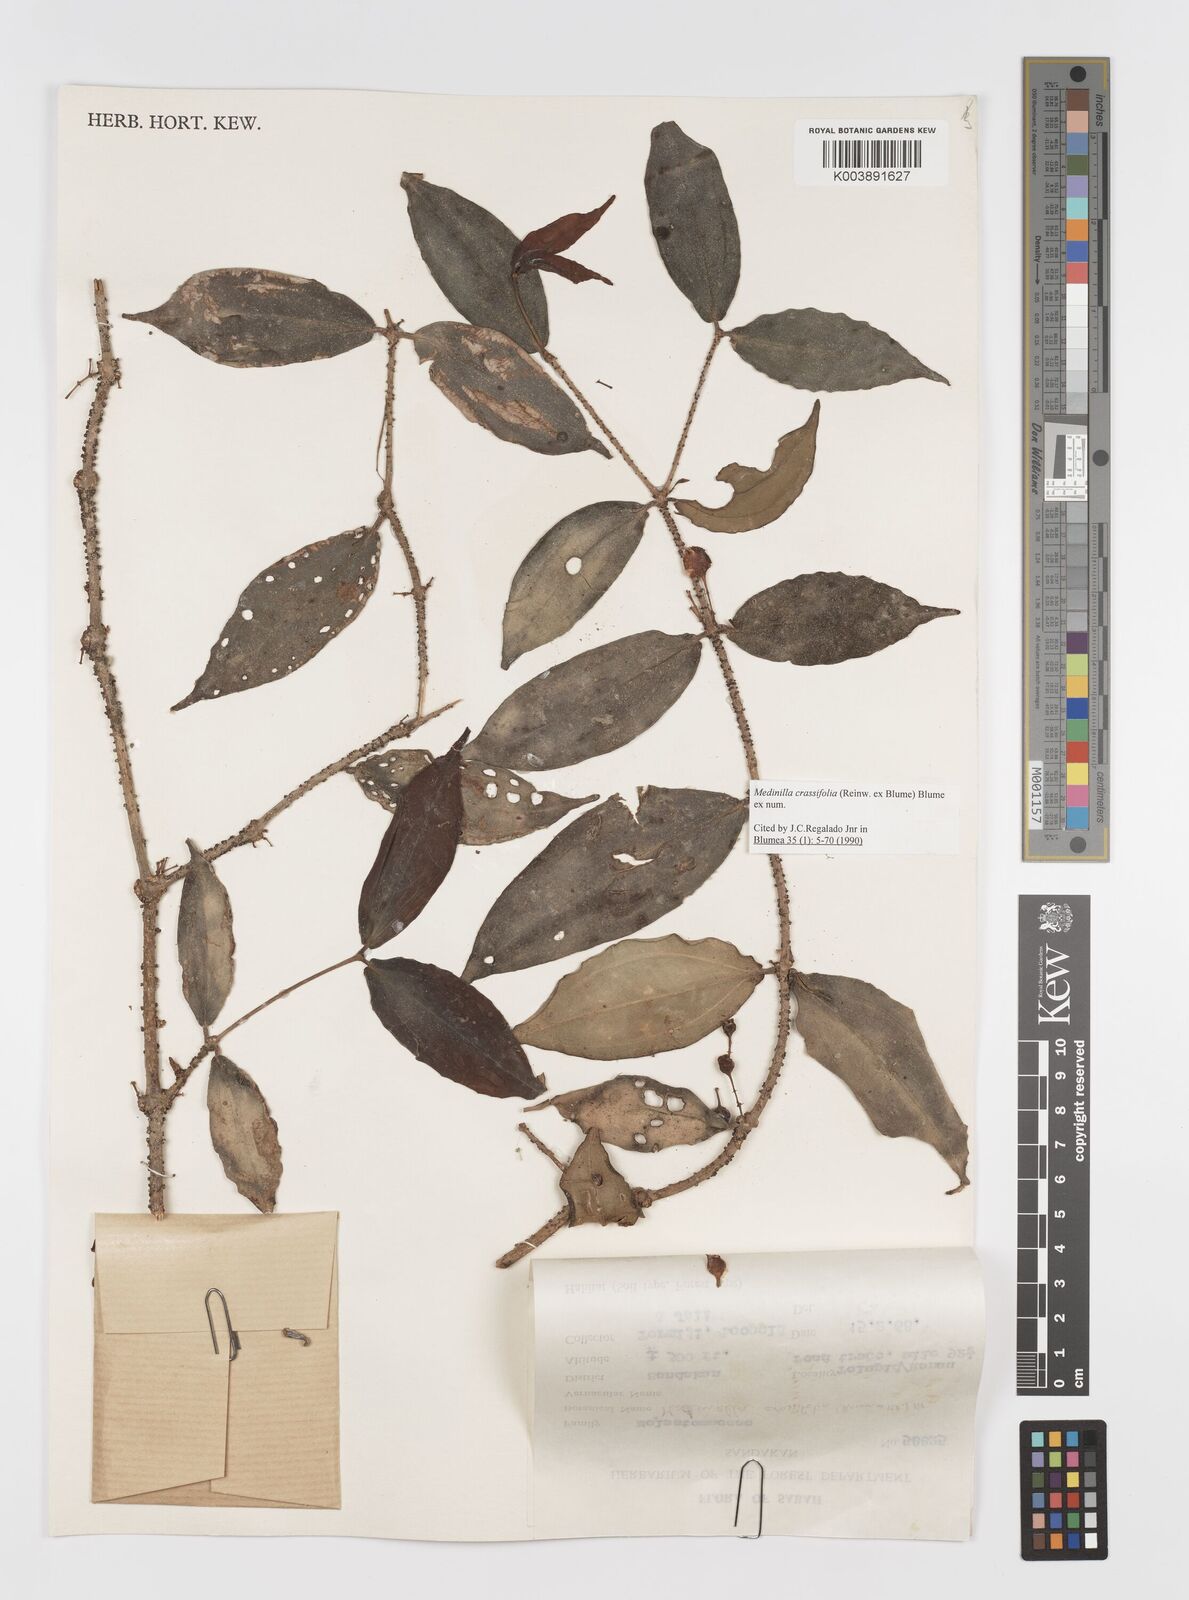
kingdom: Plantae
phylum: Tracheophyta
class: Magnoliopsida
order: Myrtales
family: Melastomataceae
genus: Medinilla
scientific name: Medinilla crassifolia
